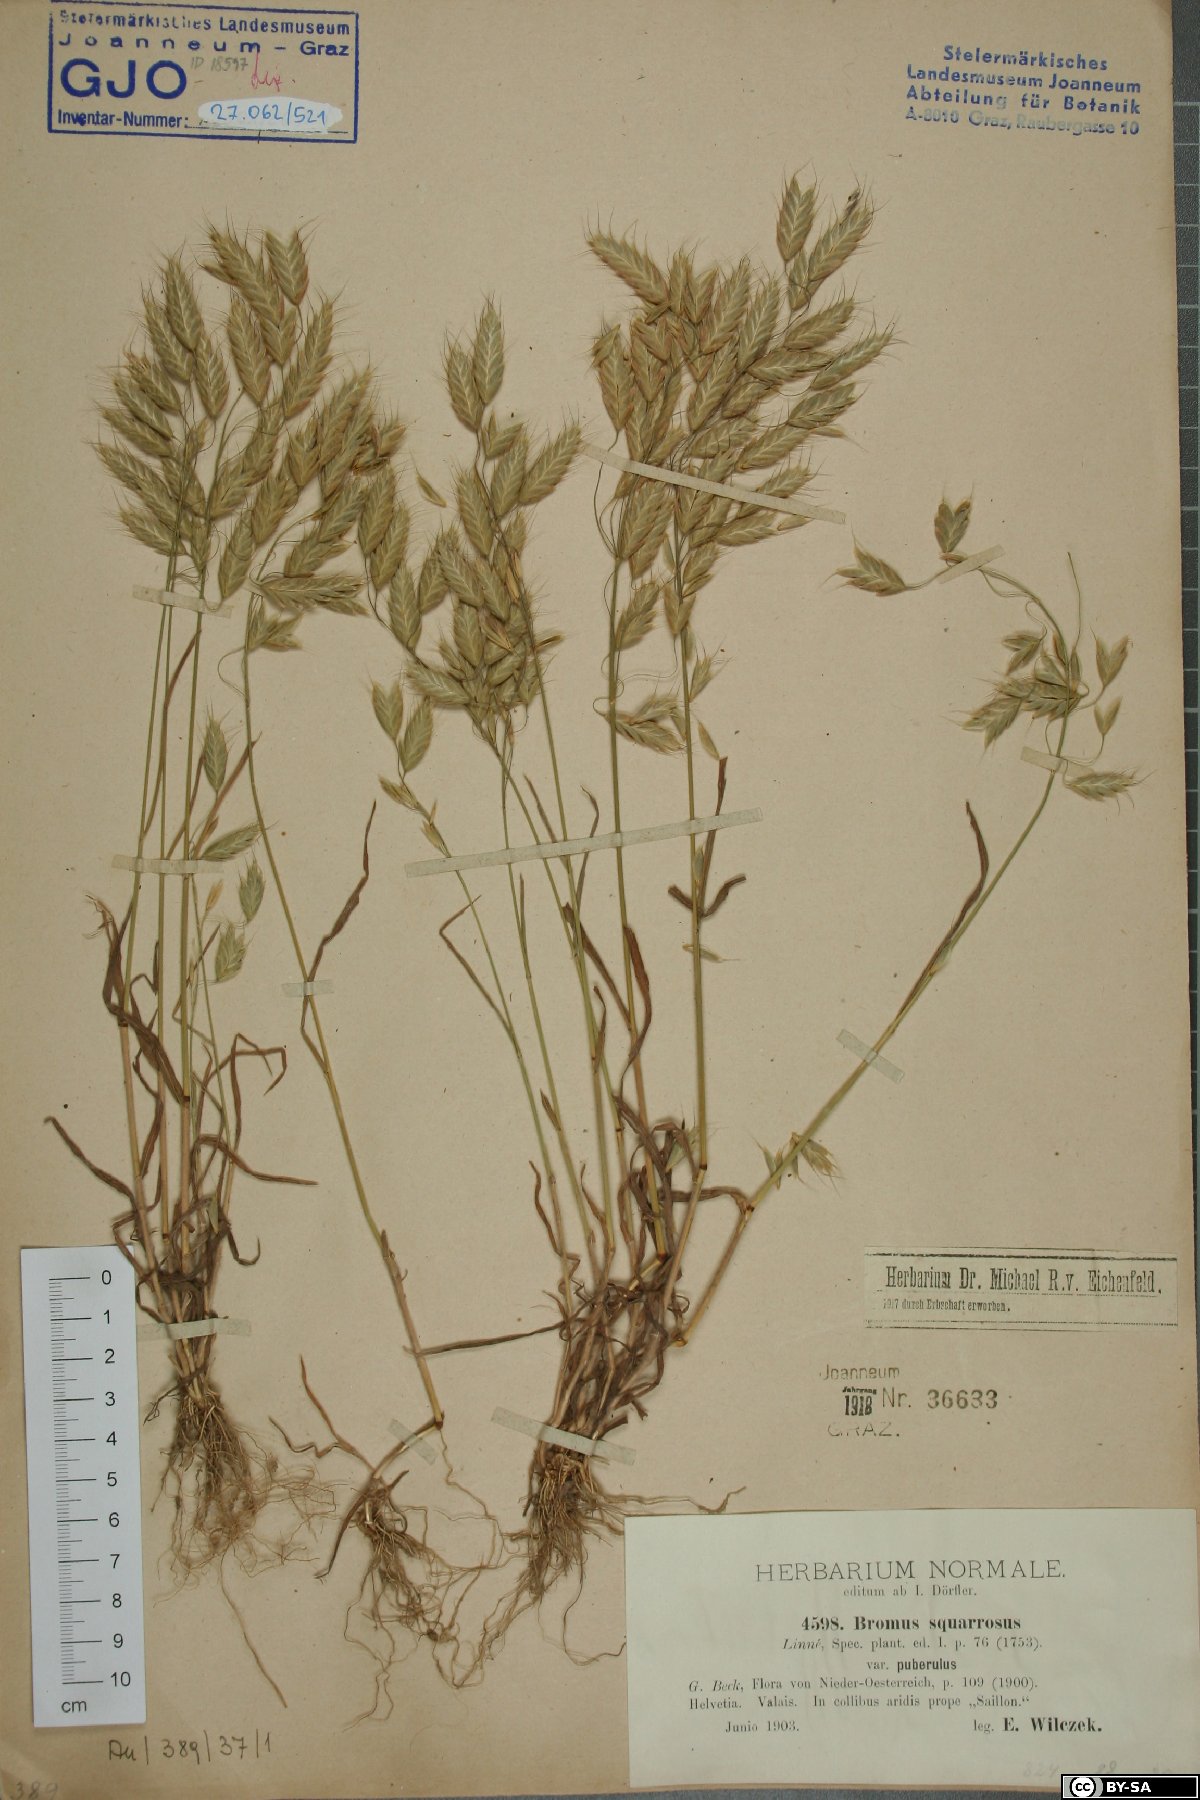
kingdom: Plantae
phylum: Tracheophyta
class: Liliopsida
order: Poales
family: Poaceae
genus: Bromus
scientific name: Bromus squarrosus
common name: Corn brome
